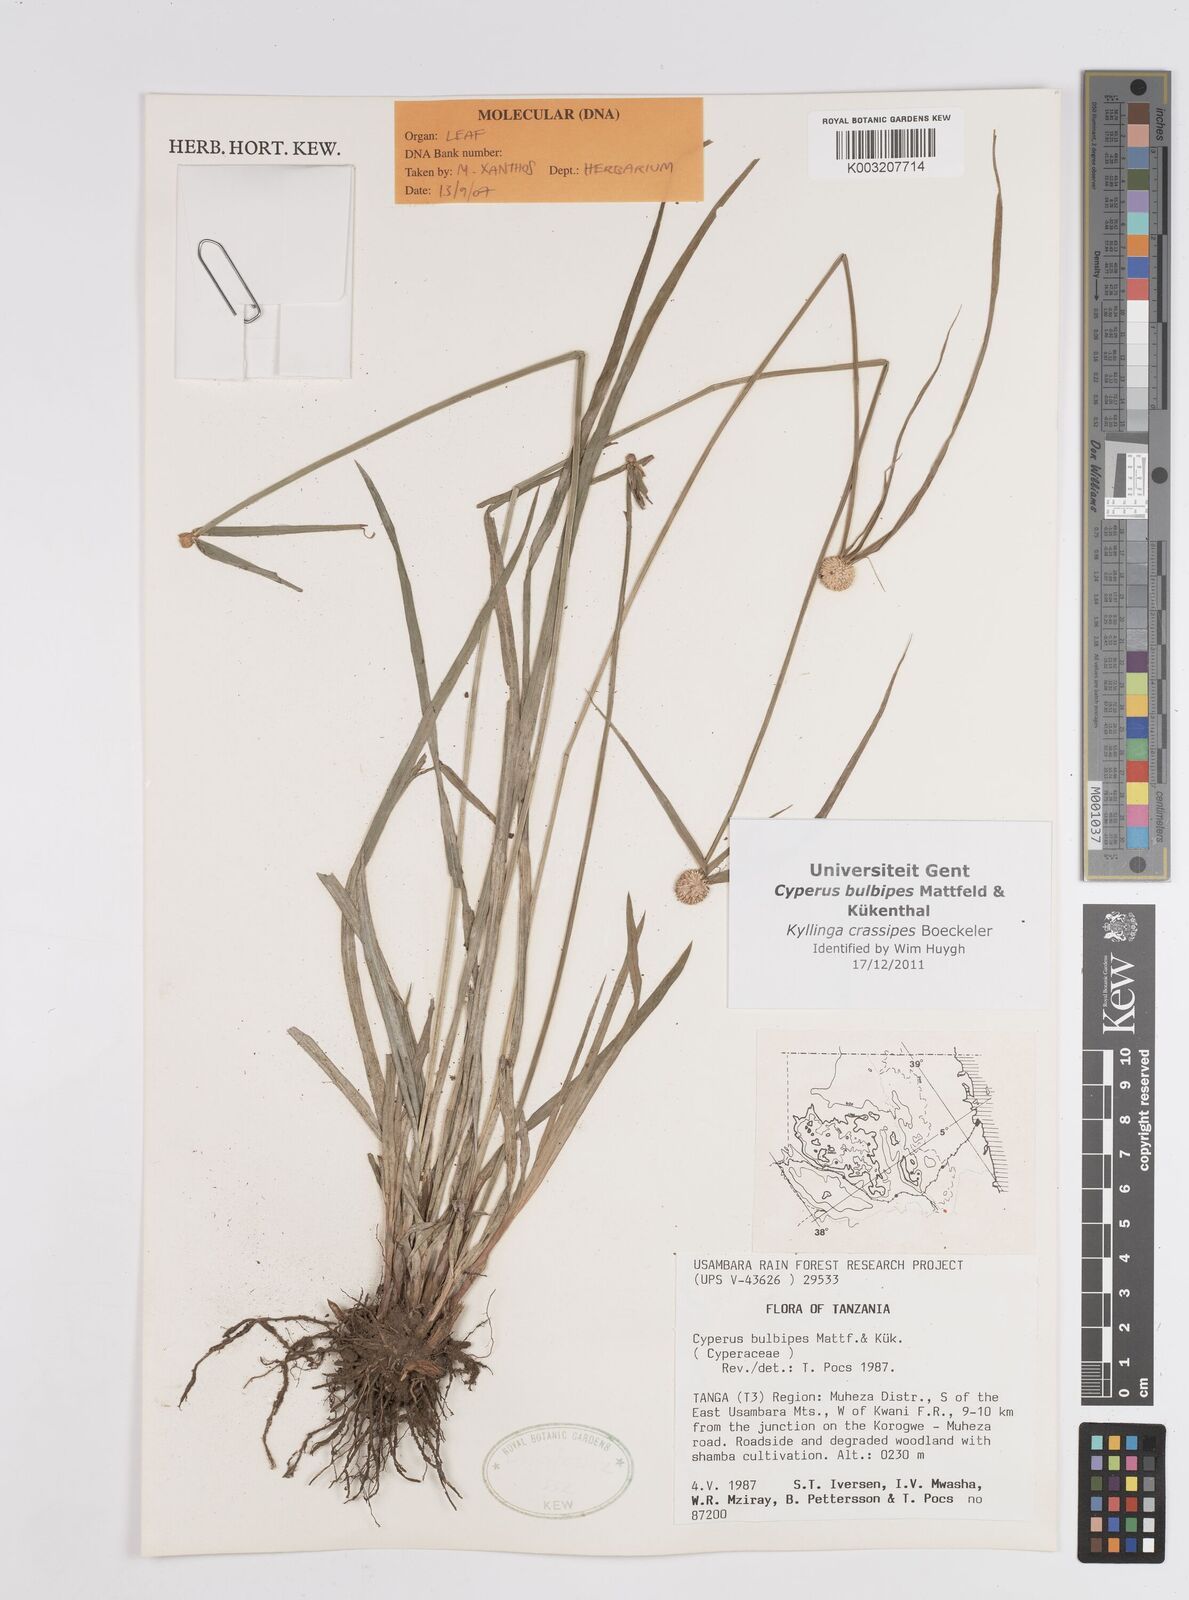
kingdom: Plantae
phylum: Tracheophyta
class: Liliopsida
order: Poales
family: Cyperaceae
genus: Cyperus
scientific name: Cyperus
